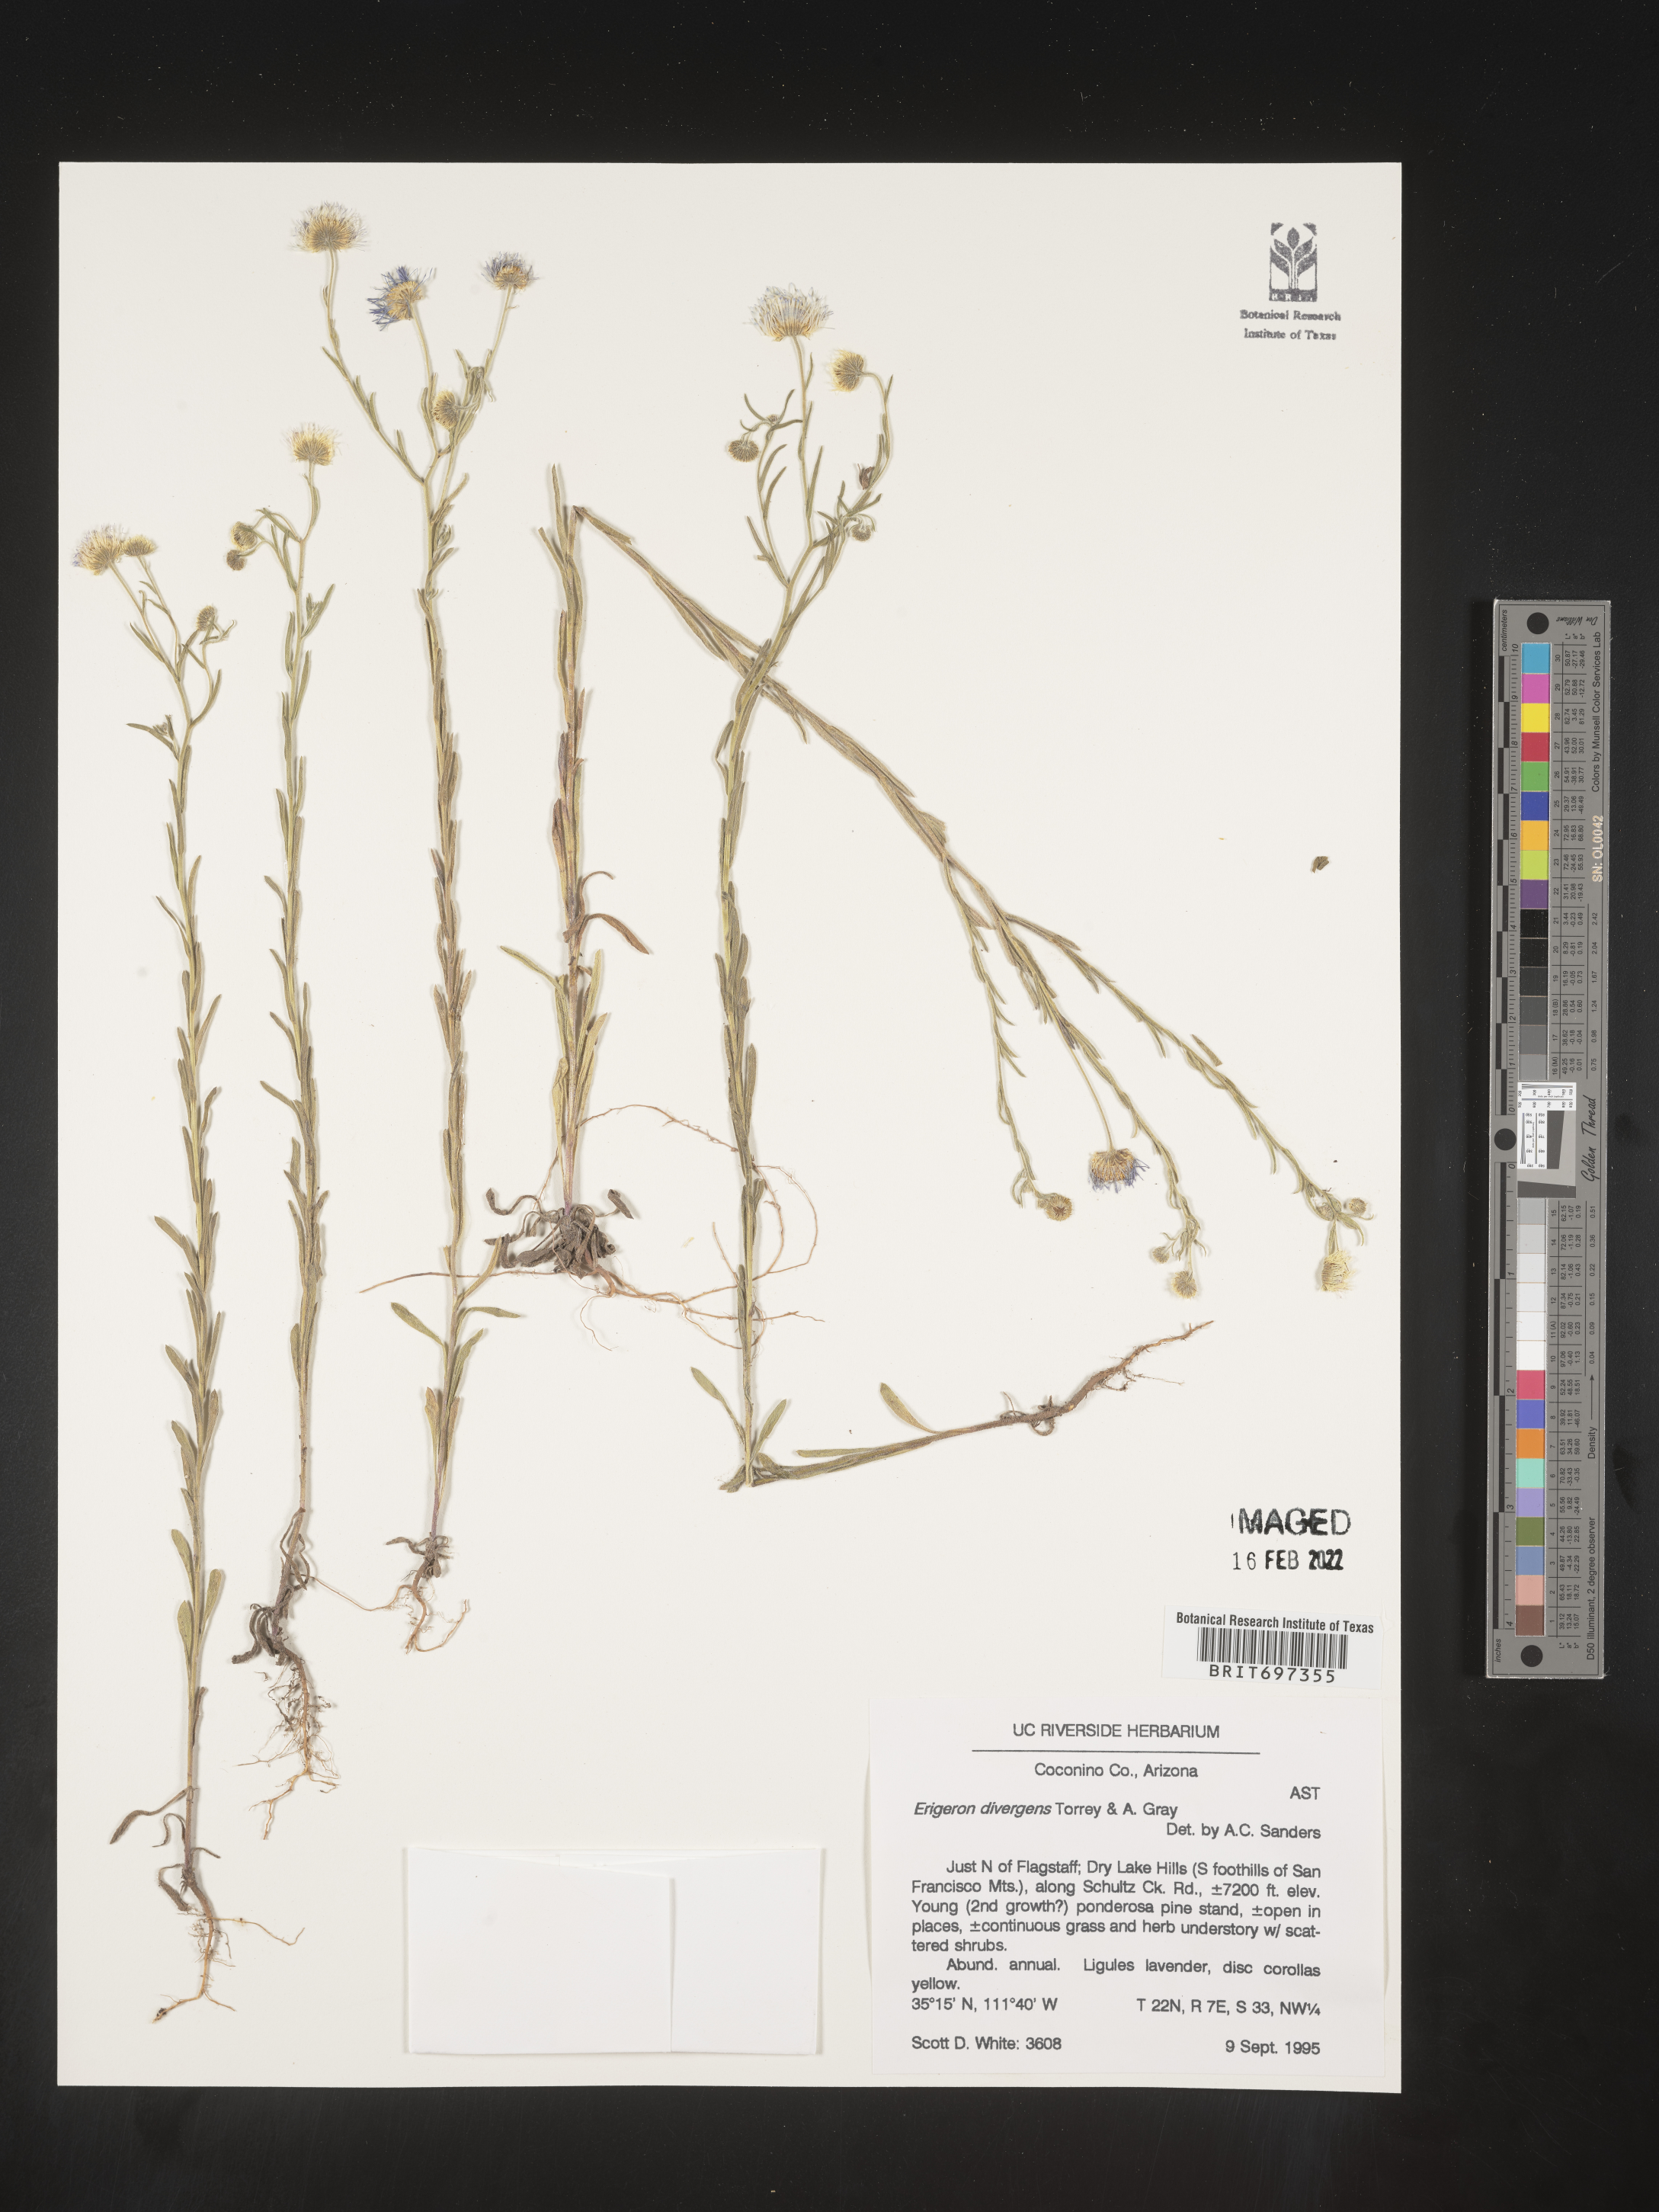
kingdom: Plantae
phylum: Tracheophyta
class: Magnoliopsida
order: Asterales
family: Asteraceae
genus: Erigeron
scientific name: Erigeron divergens
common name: Diffuse fleabane
